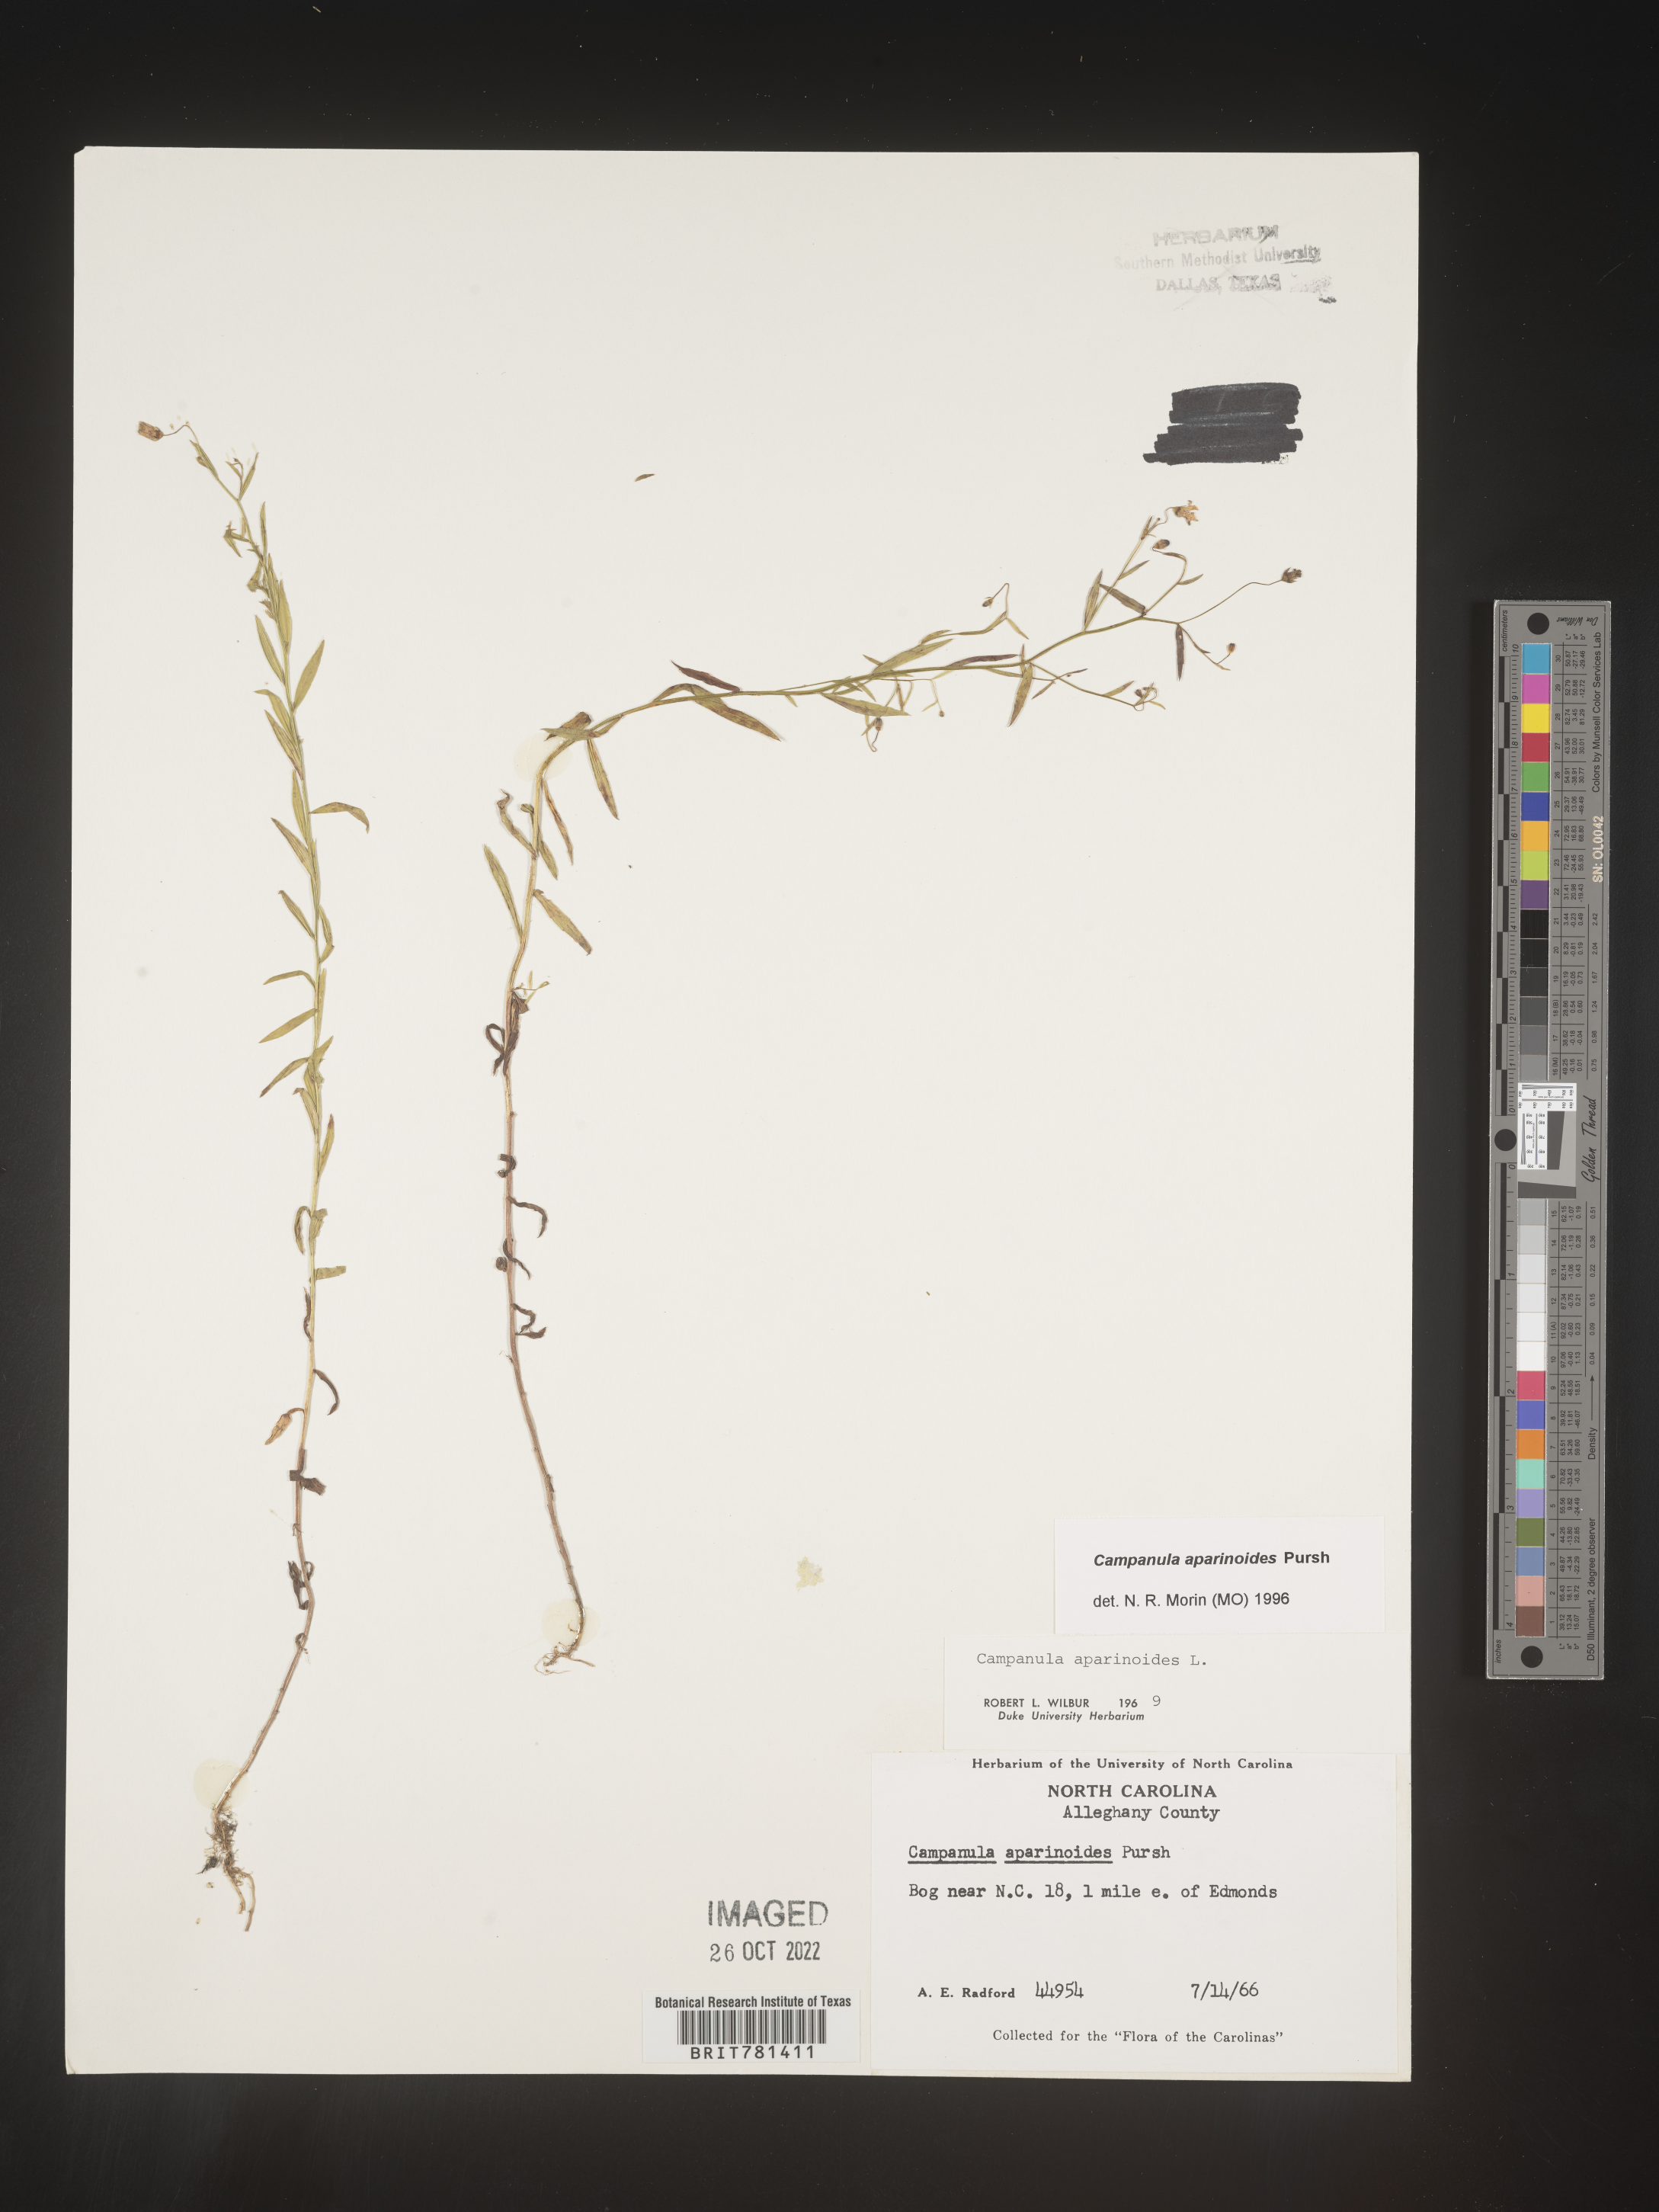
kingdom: Plantae
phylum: Tracheophyta
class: Magnoliopsida
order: Asterales
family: Campanulaceae
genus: Palustricodon
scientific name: Palustricodon aparinoides
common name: Bedstraw bellflower
